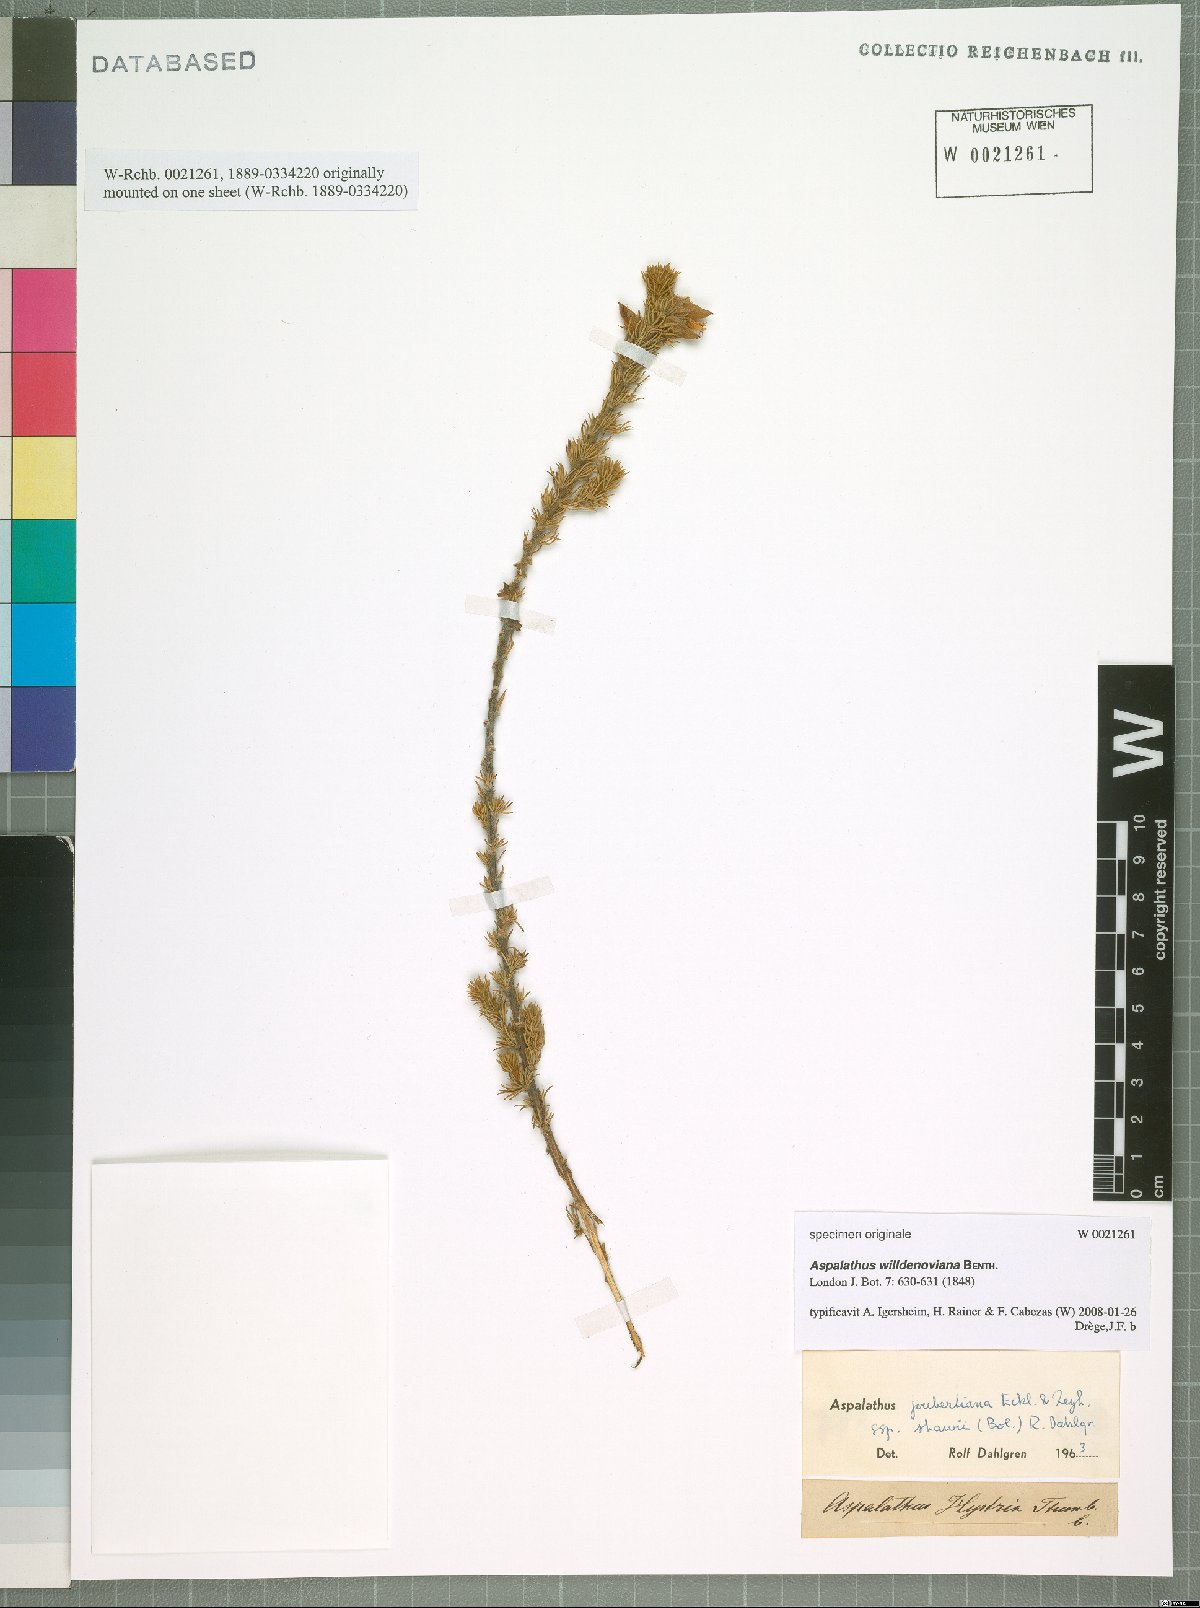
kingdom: Plantae
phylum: Tracheophyta
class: Magnoliopsida
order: Fabales
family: Fabaceae
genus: Aspalathus
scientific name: Aspalathus willdenowiana
